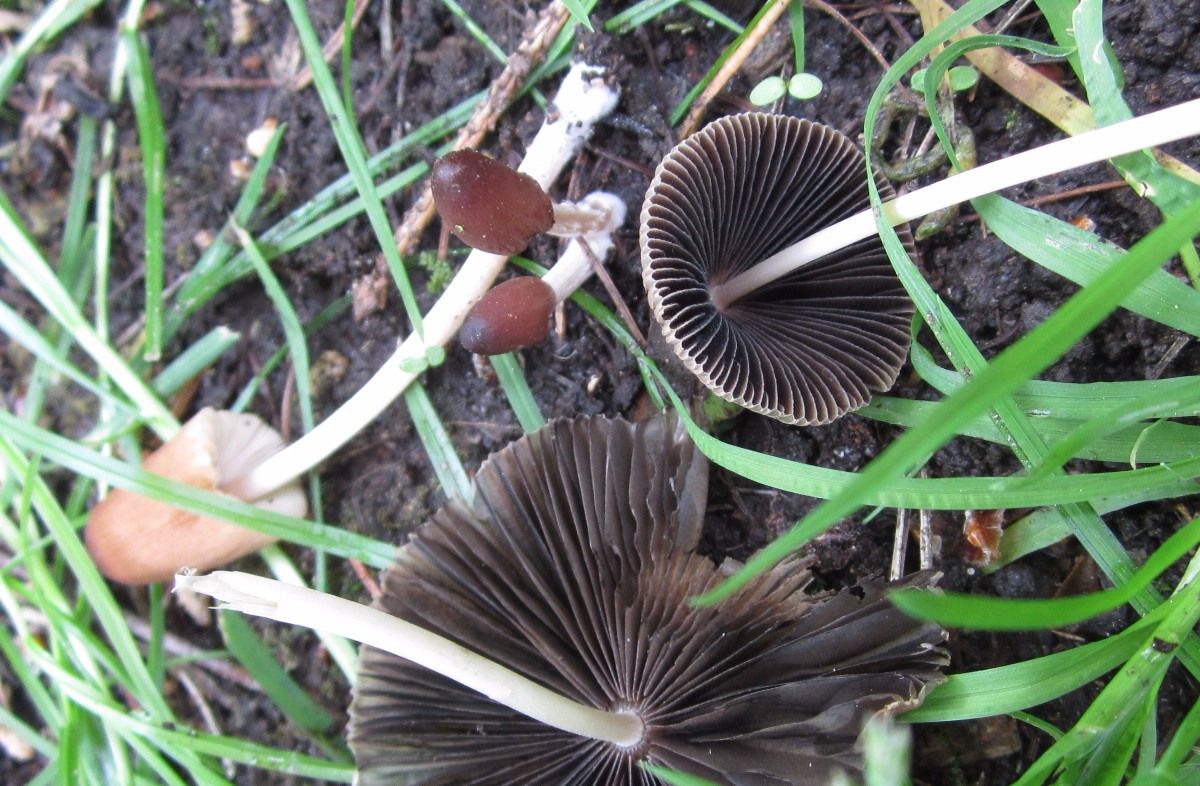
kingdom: Fungi
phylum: Basidiomycota
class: Agaricomycetes
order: Agaricales
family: Psathyrellaceae
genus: Parasola
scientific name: Parasola auricoma
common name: hansens hjulhat
